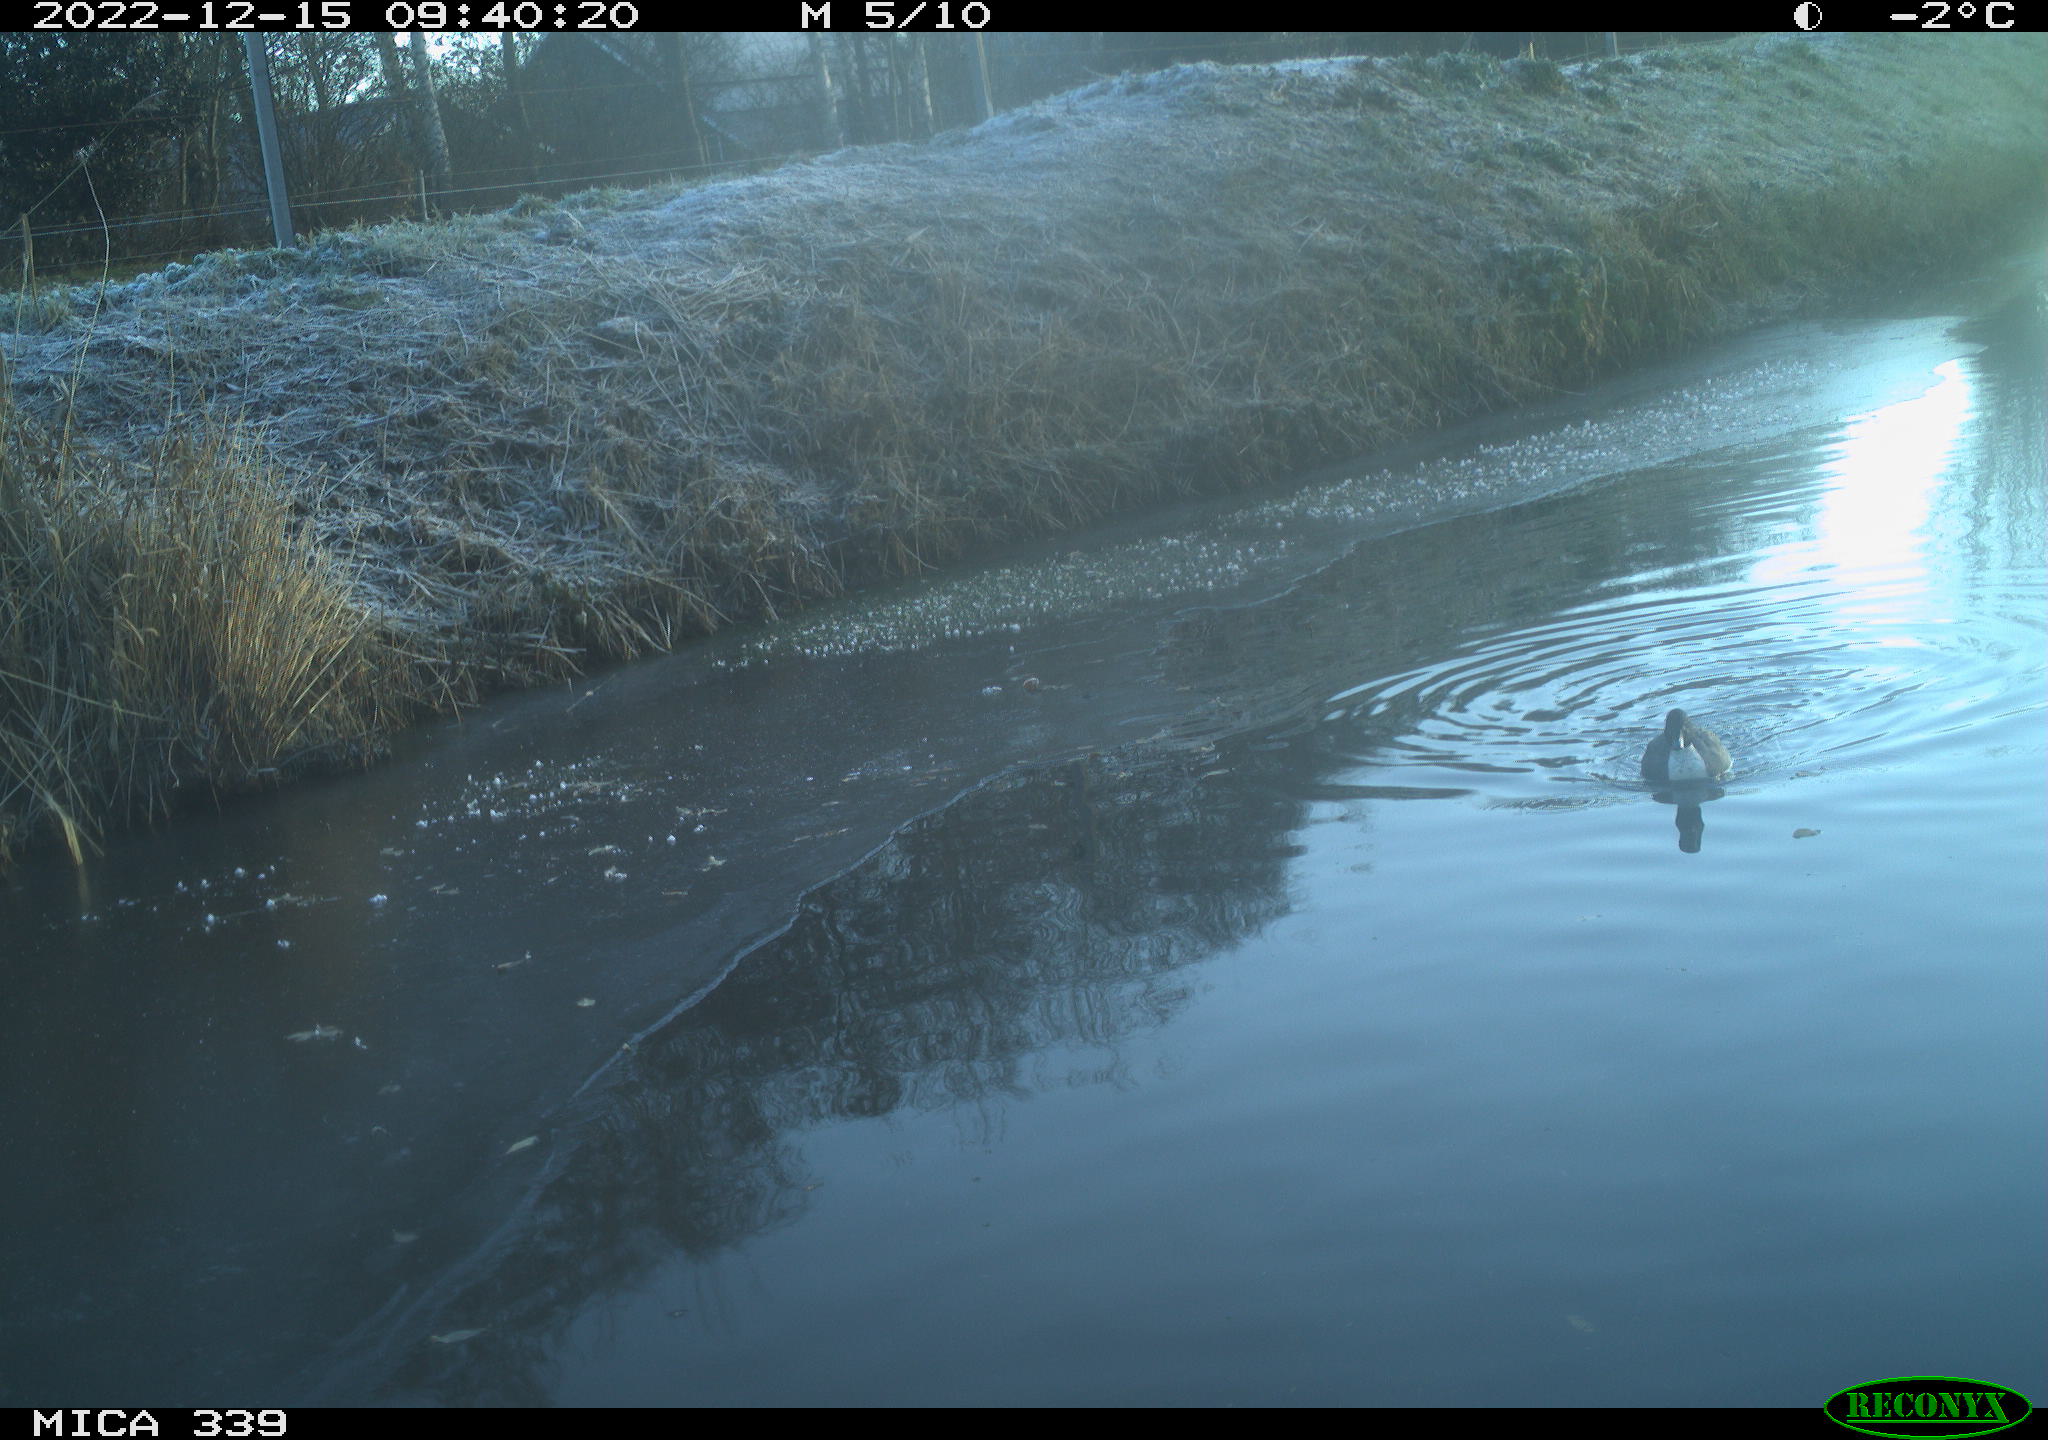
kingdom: Animalia
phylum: Chordata
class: Aves
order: Anseriformes
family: Anatidae
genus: Anas
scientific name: Anas
